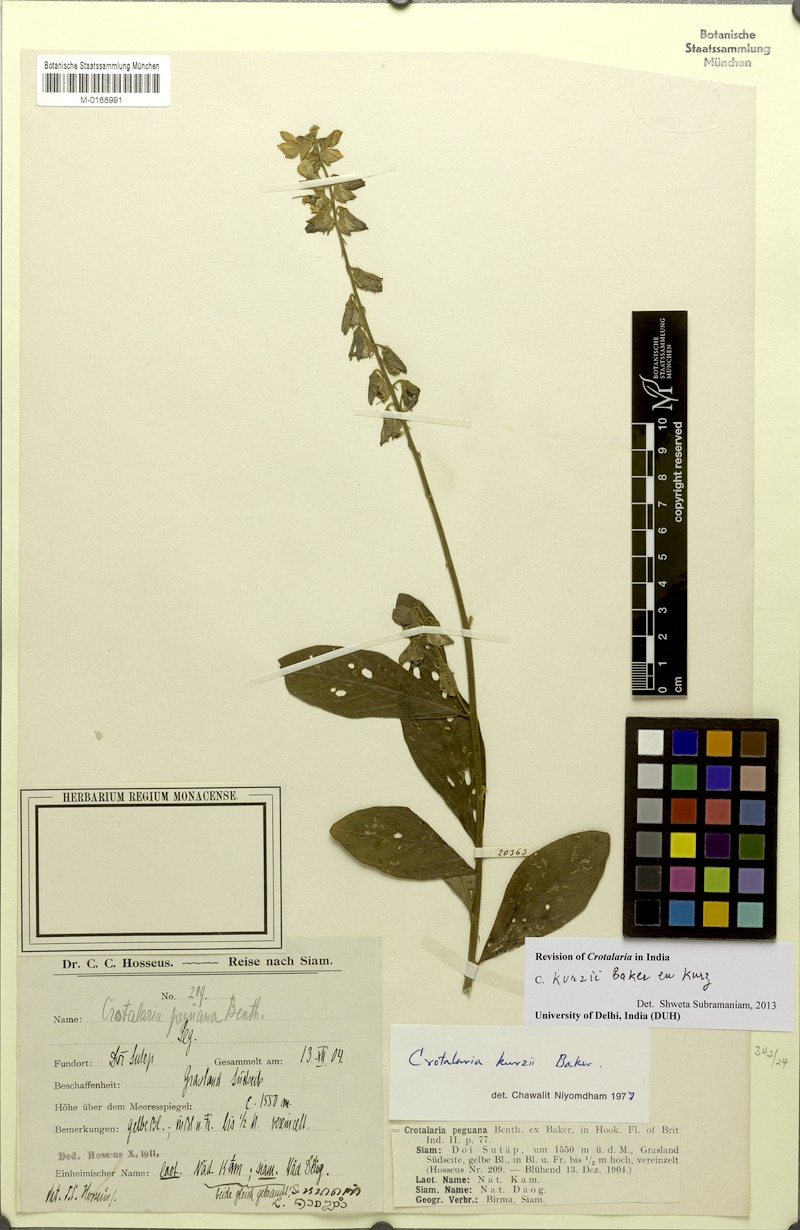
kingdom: Plantae
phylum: Tracheophyta
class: Magnoliopsida
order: Fabales
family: Fabaceae
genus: Crotalaria
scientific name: Crotalaria kurzii
